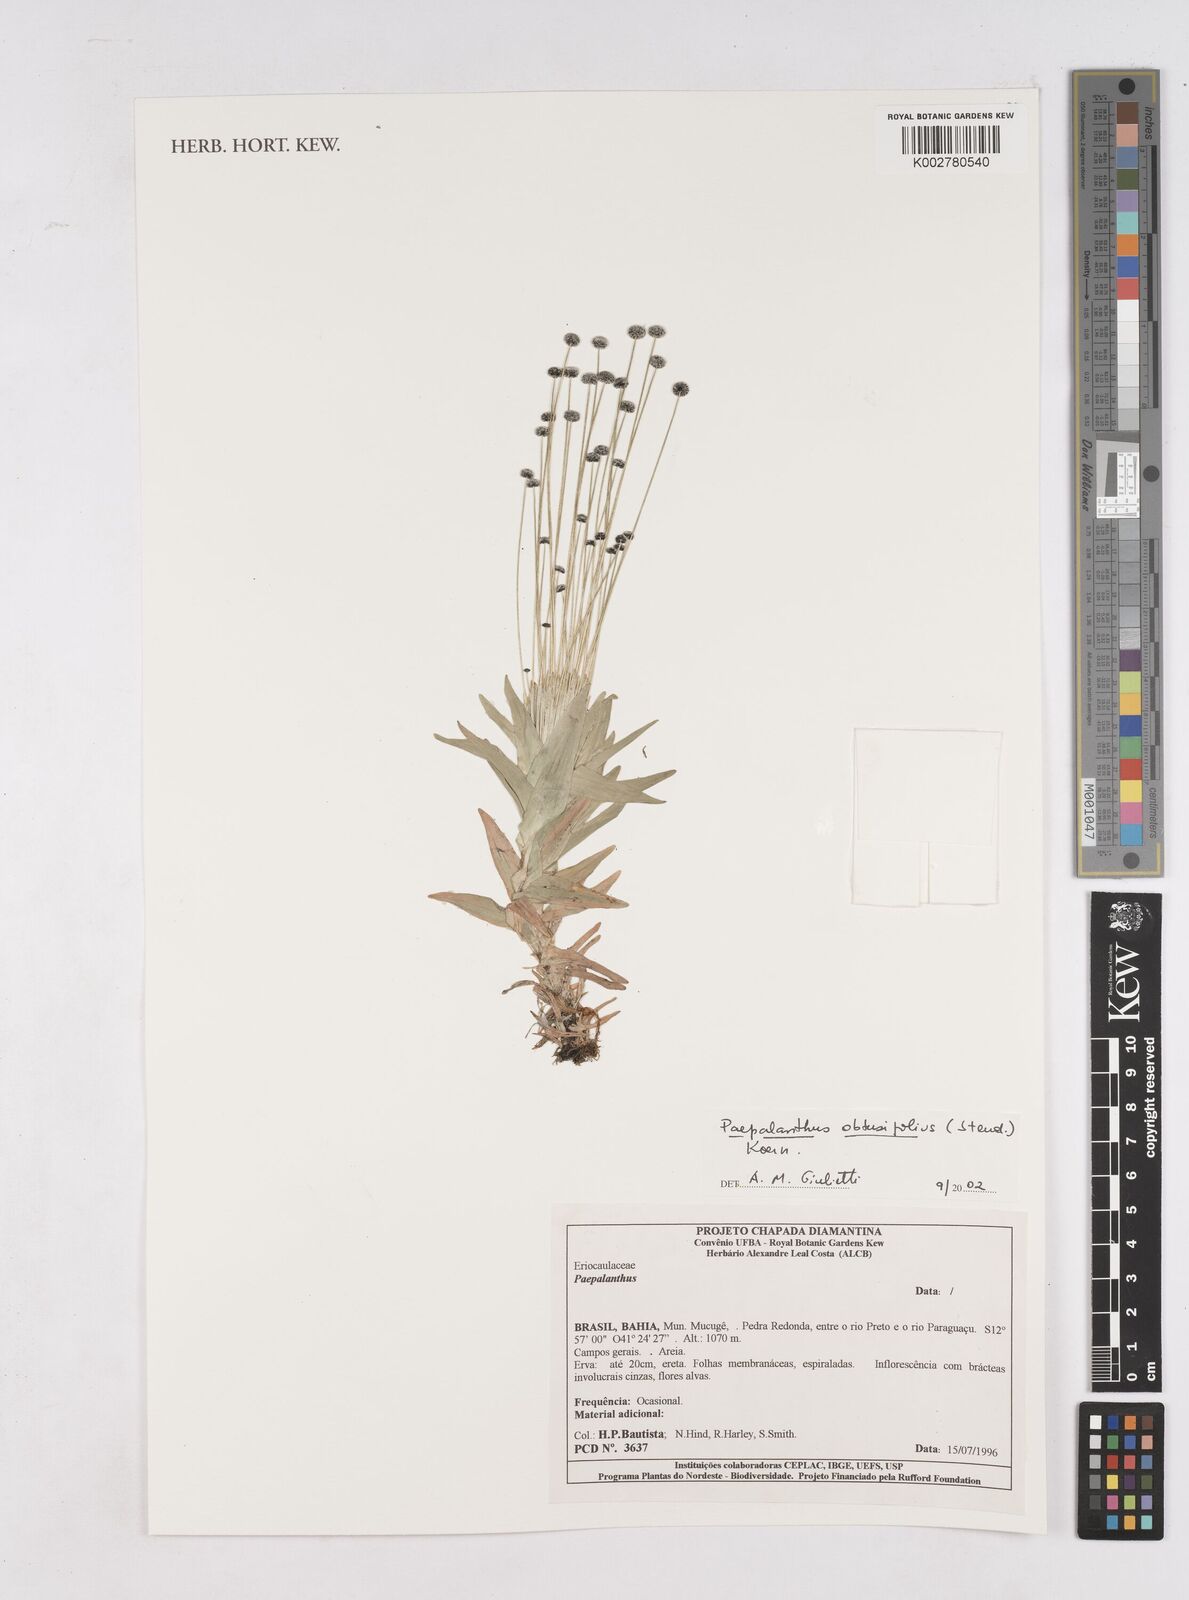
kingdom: Plantae
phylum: Tracheophyta
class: Liliopsida
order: Poales
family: Eriocaulaceae
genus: Paepalanthus
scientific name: Paepalanthus obtusifolius
